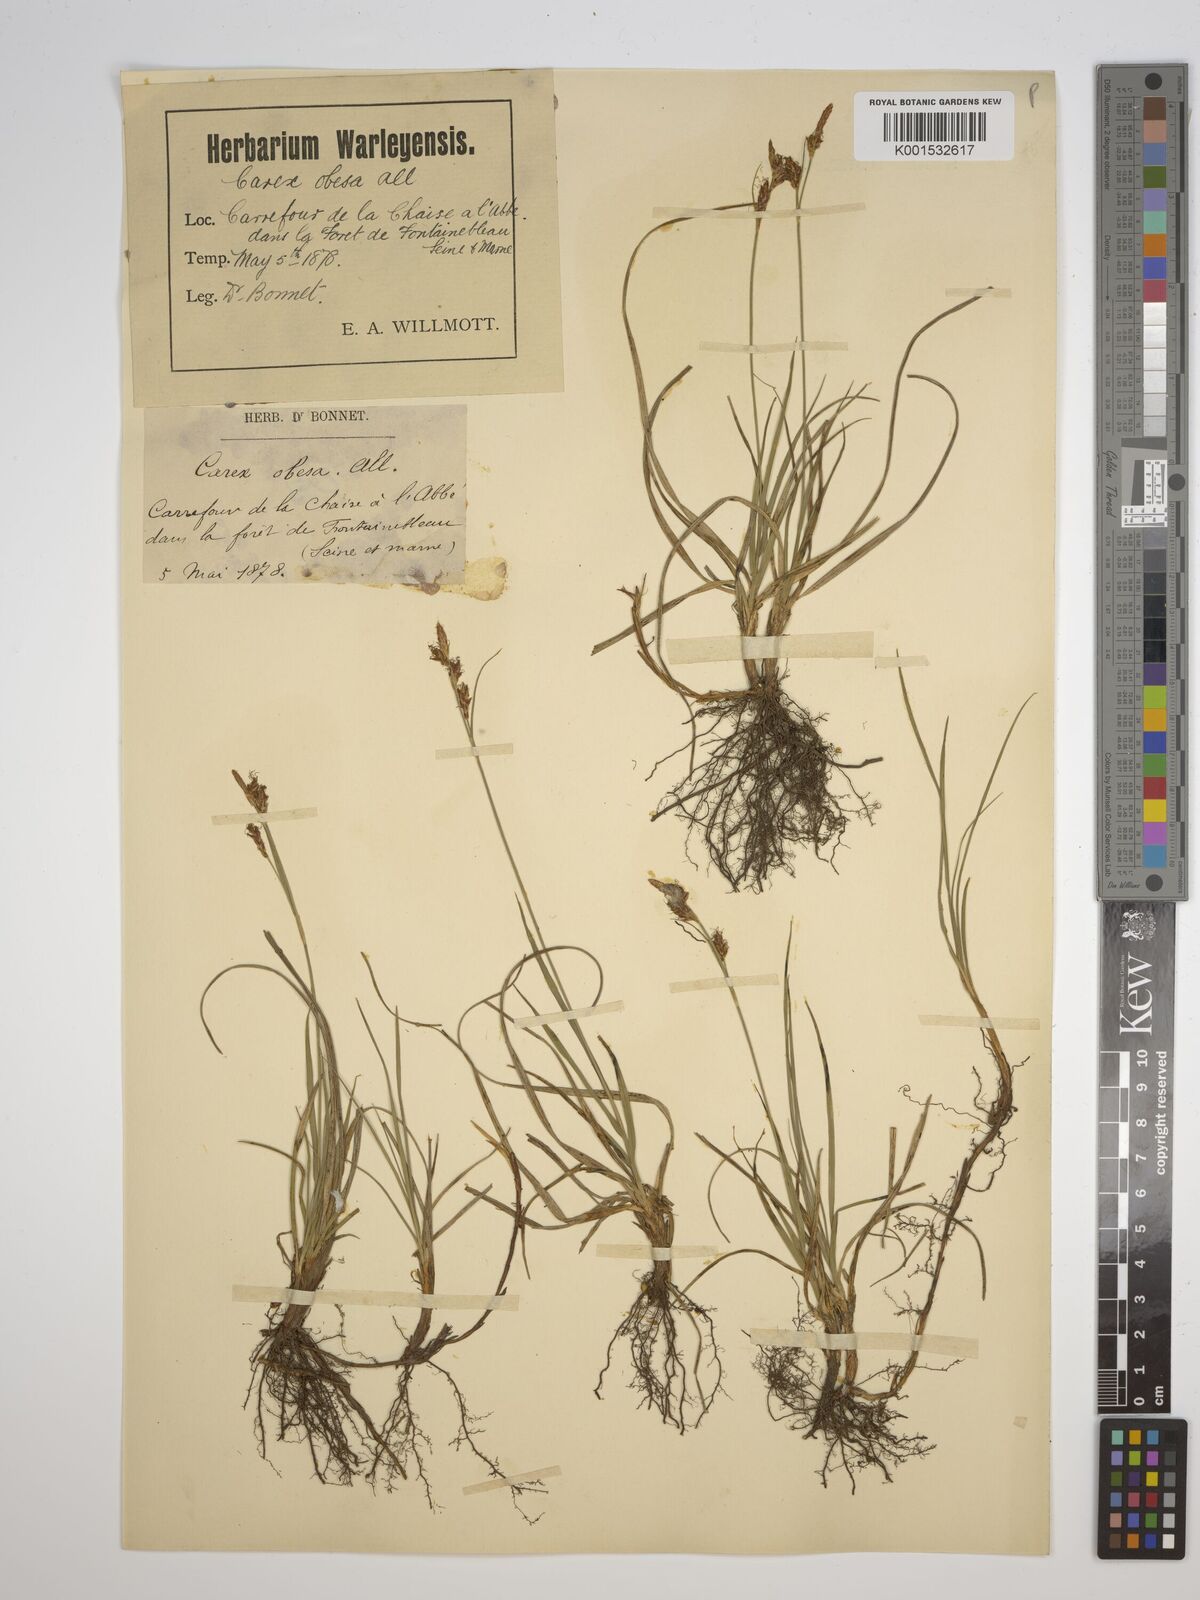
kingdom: Plantae
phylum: Tracheophyta
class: Liliopsida
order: Poales
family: Cyperaceae
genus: Carex
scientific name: Carex nigra
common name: Common sedge
